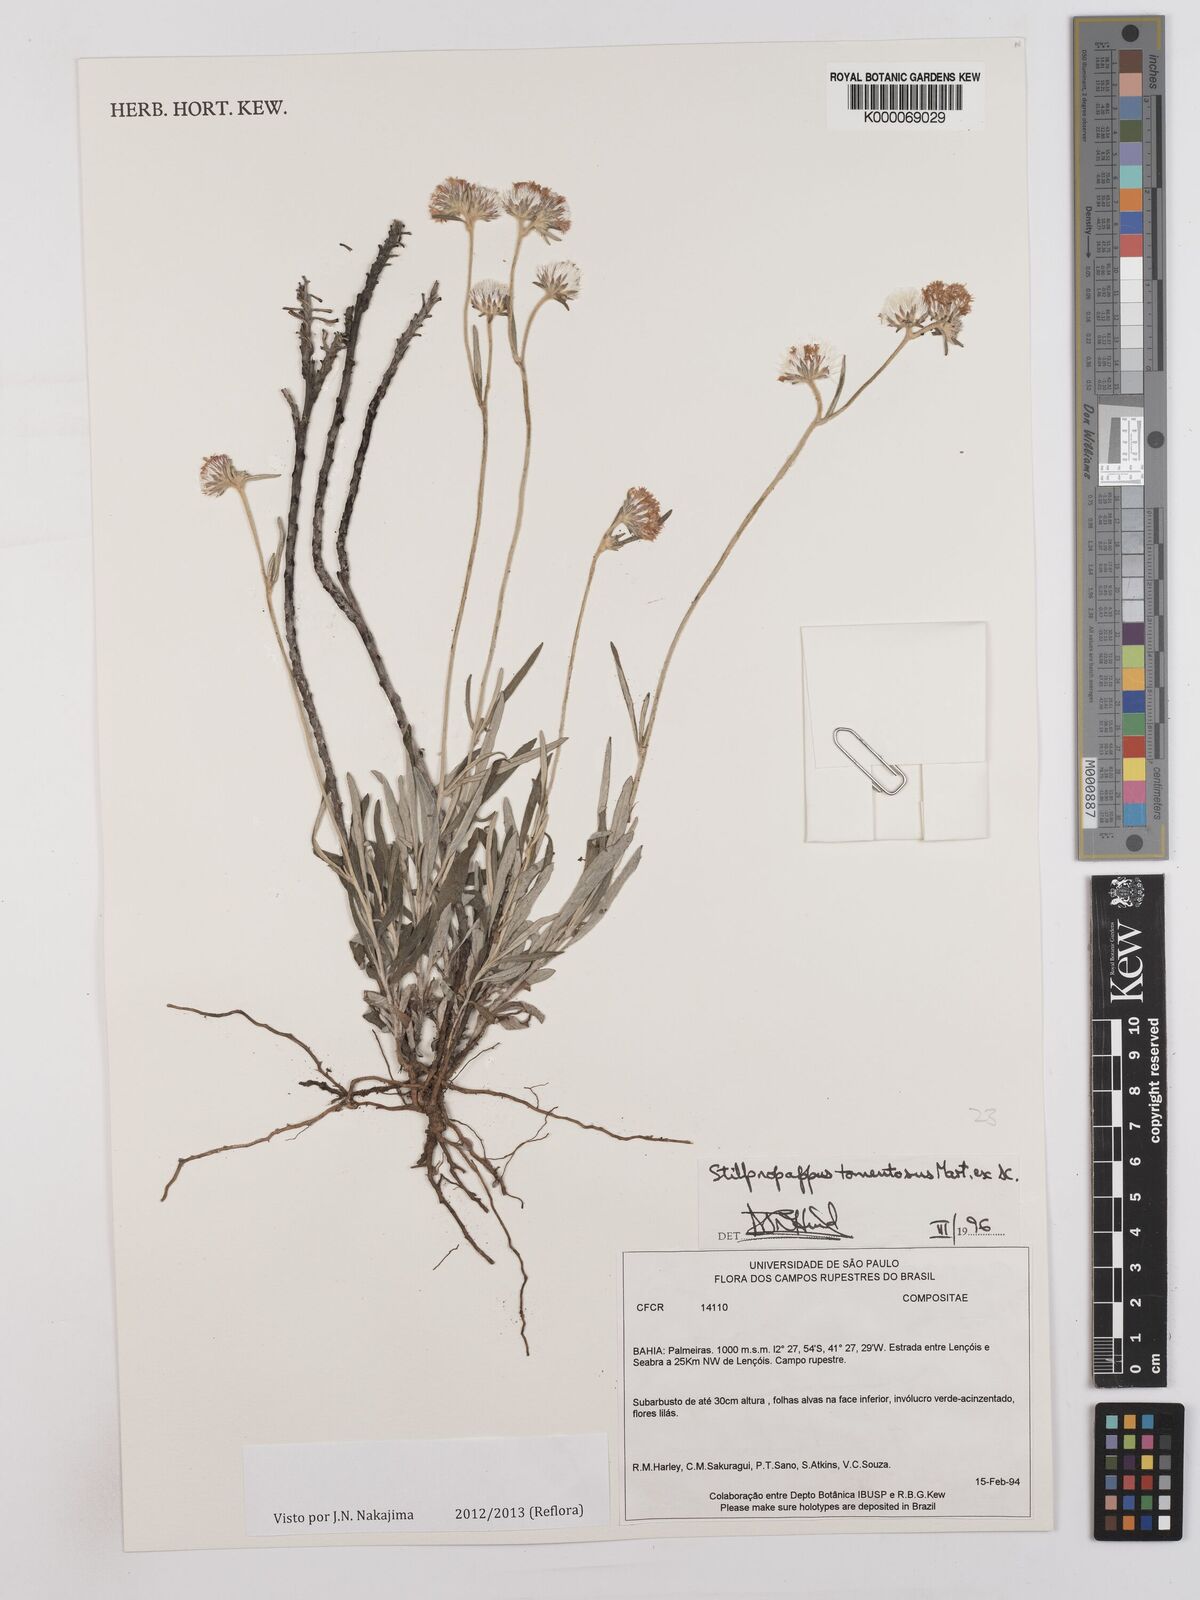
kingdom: Plantae
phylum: Tracheophyta
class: Magnoliopsida
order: Asterales
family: Asteraceae
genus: Stilpnopappus
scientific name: Stilpnopappus tomentosus
